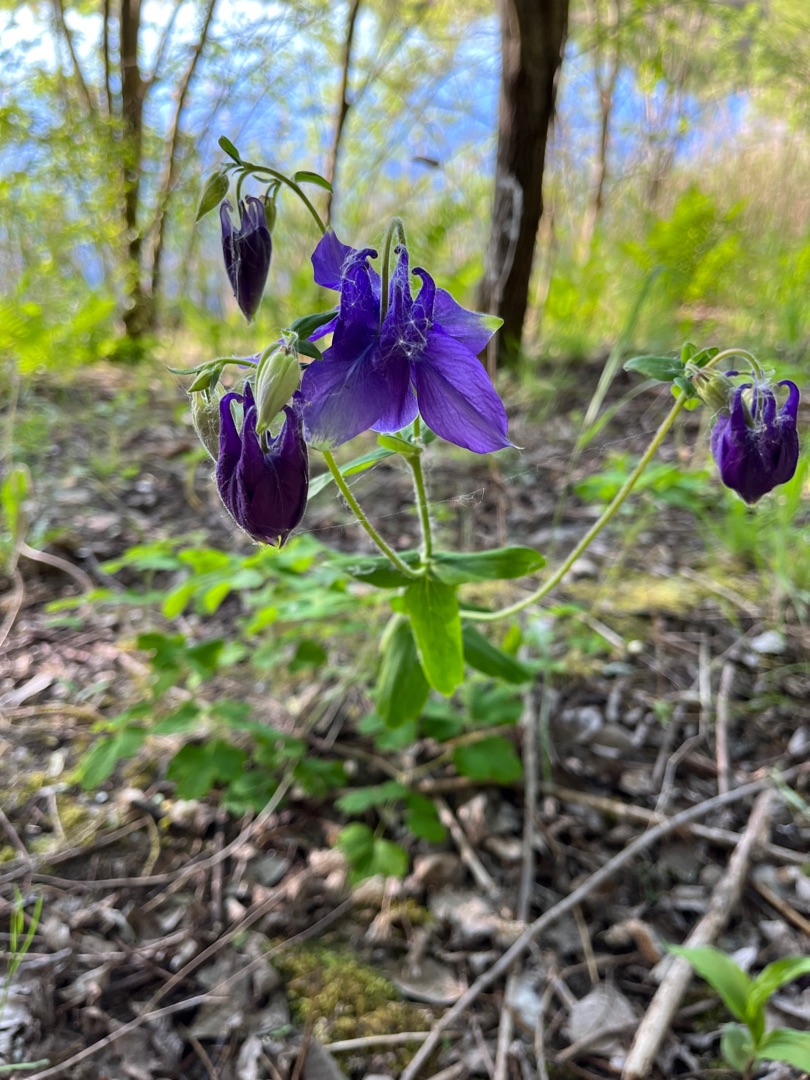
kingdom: Plantae
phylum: Tracheophyta
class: Magnoliopsida
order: Ranunculales
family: Ranunculaceae
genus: Aquilegia
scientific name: Aquilegia vulgaris
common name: Akeleje
